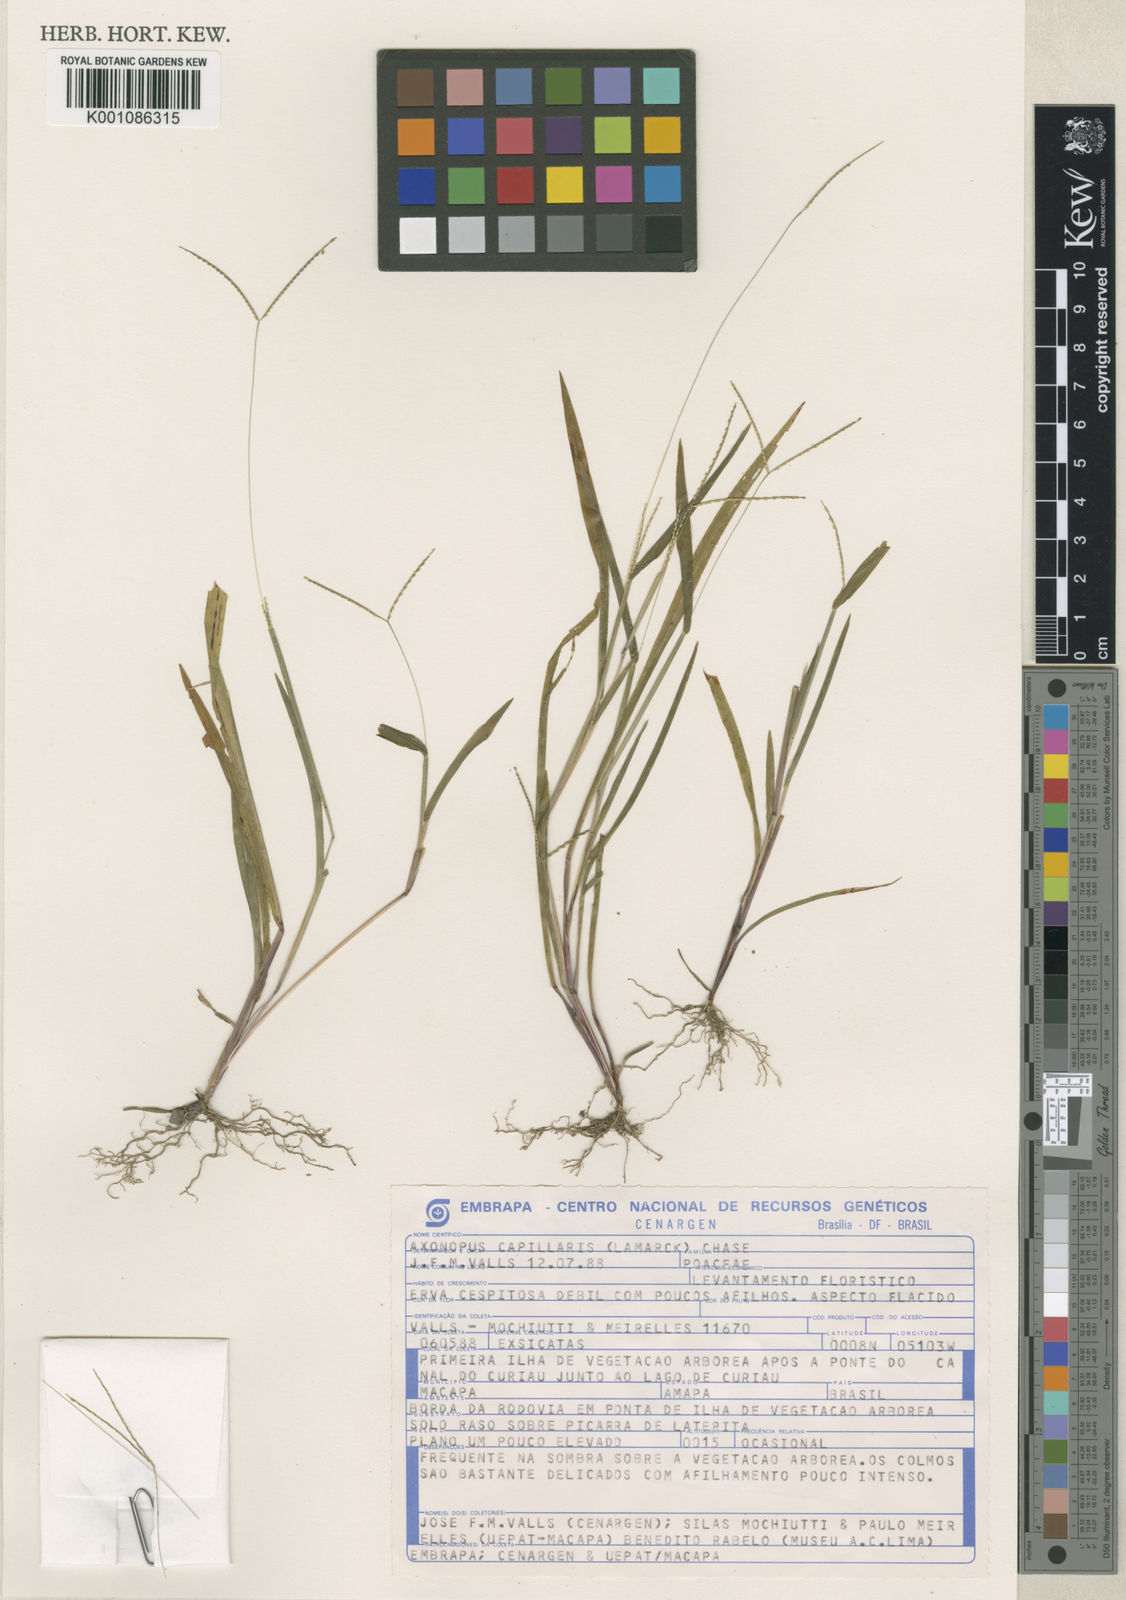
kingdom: Plantae
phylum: Tracheophyta
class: Liliopsida
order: Poales
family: Poaceae
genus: Axonopus
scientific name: Axonopus capillaris
